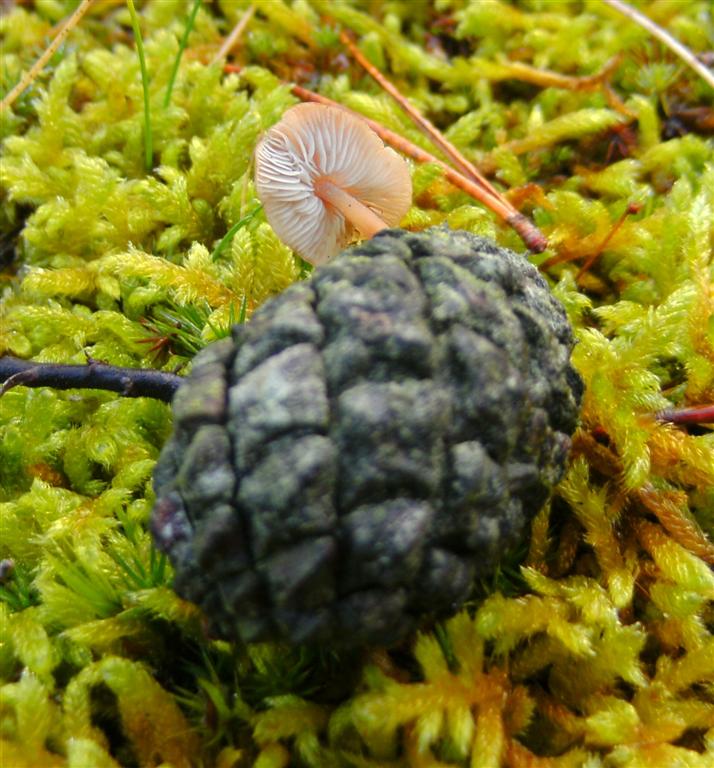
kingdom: Fungi
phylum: Basidiomycota
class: Agaricomycetes
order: Agaricales
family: Physalacriaceae
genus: Strobilurus
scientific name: Strobilurus stephanocystis
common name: fyrre-koglehat
